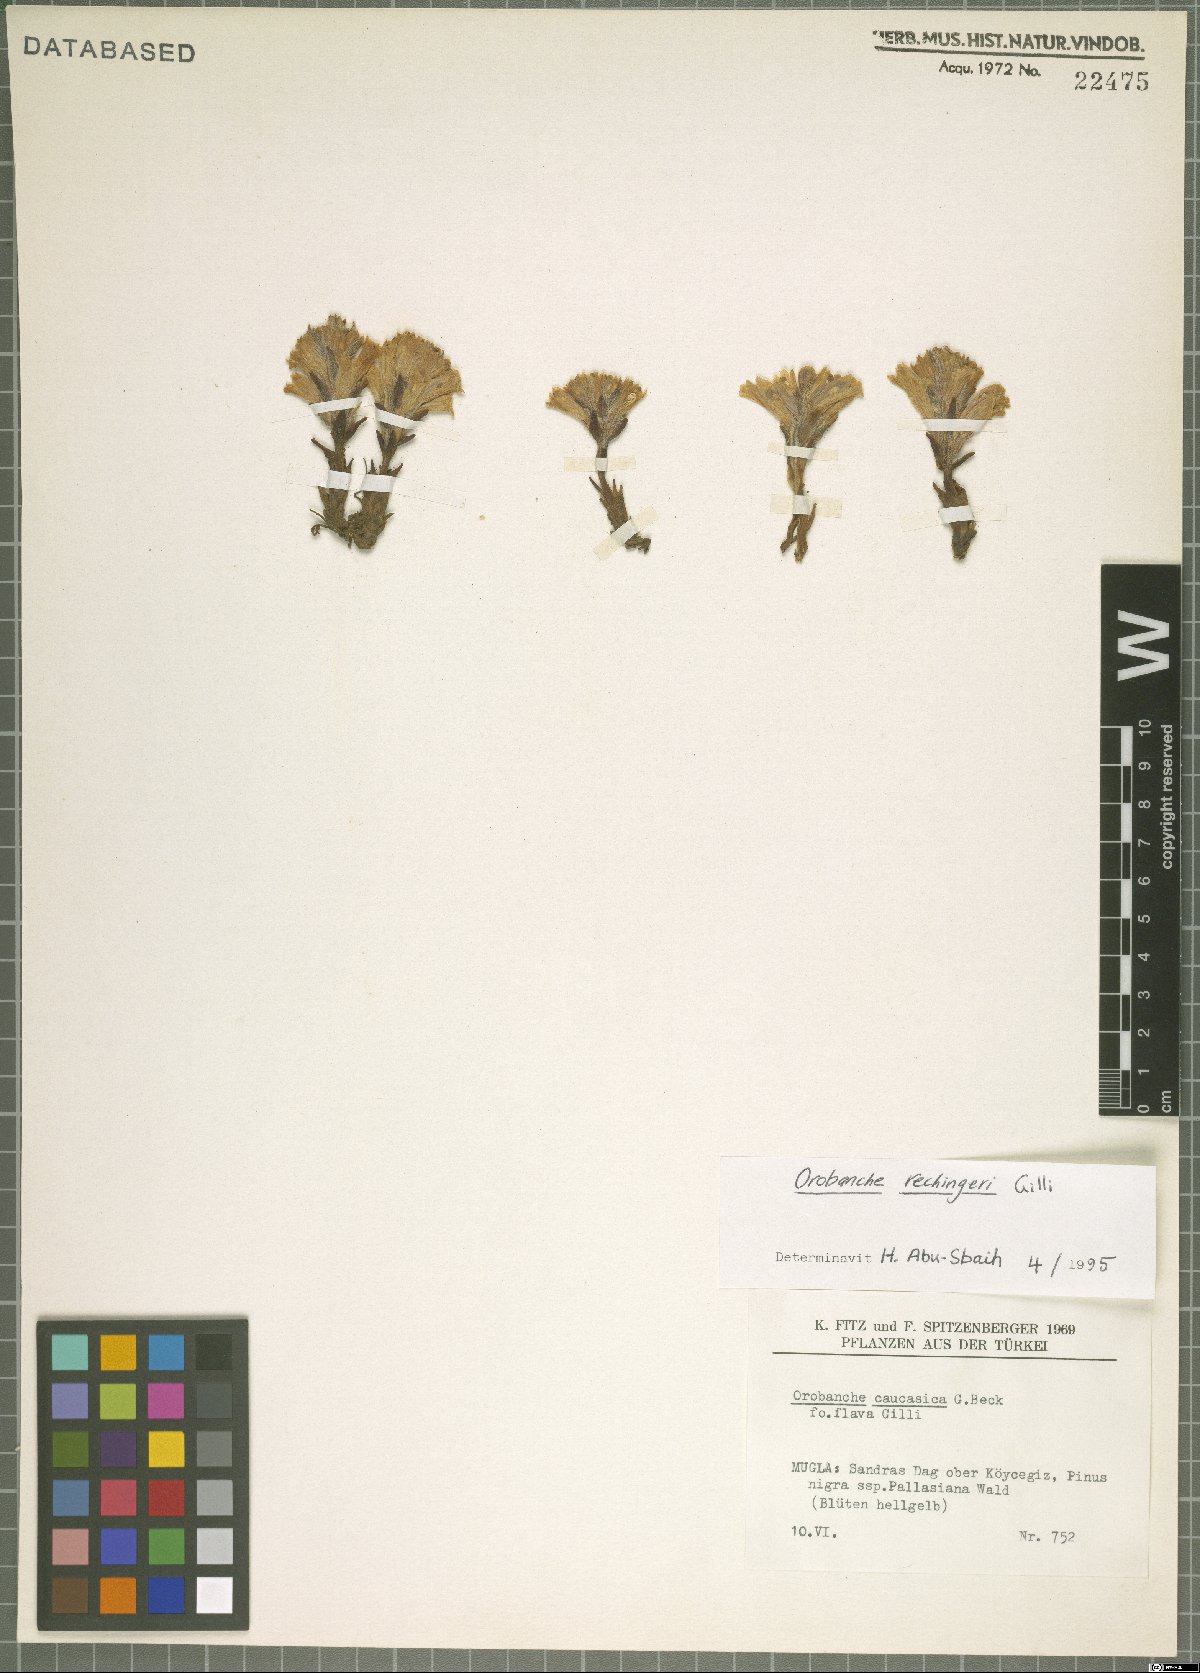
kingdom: Plantae
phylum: Tracheophyta
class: Magnoliopsida
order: Lamiales
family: Orobanchaceae
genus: Phelipanche
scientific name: Phelipanche nowackiana
